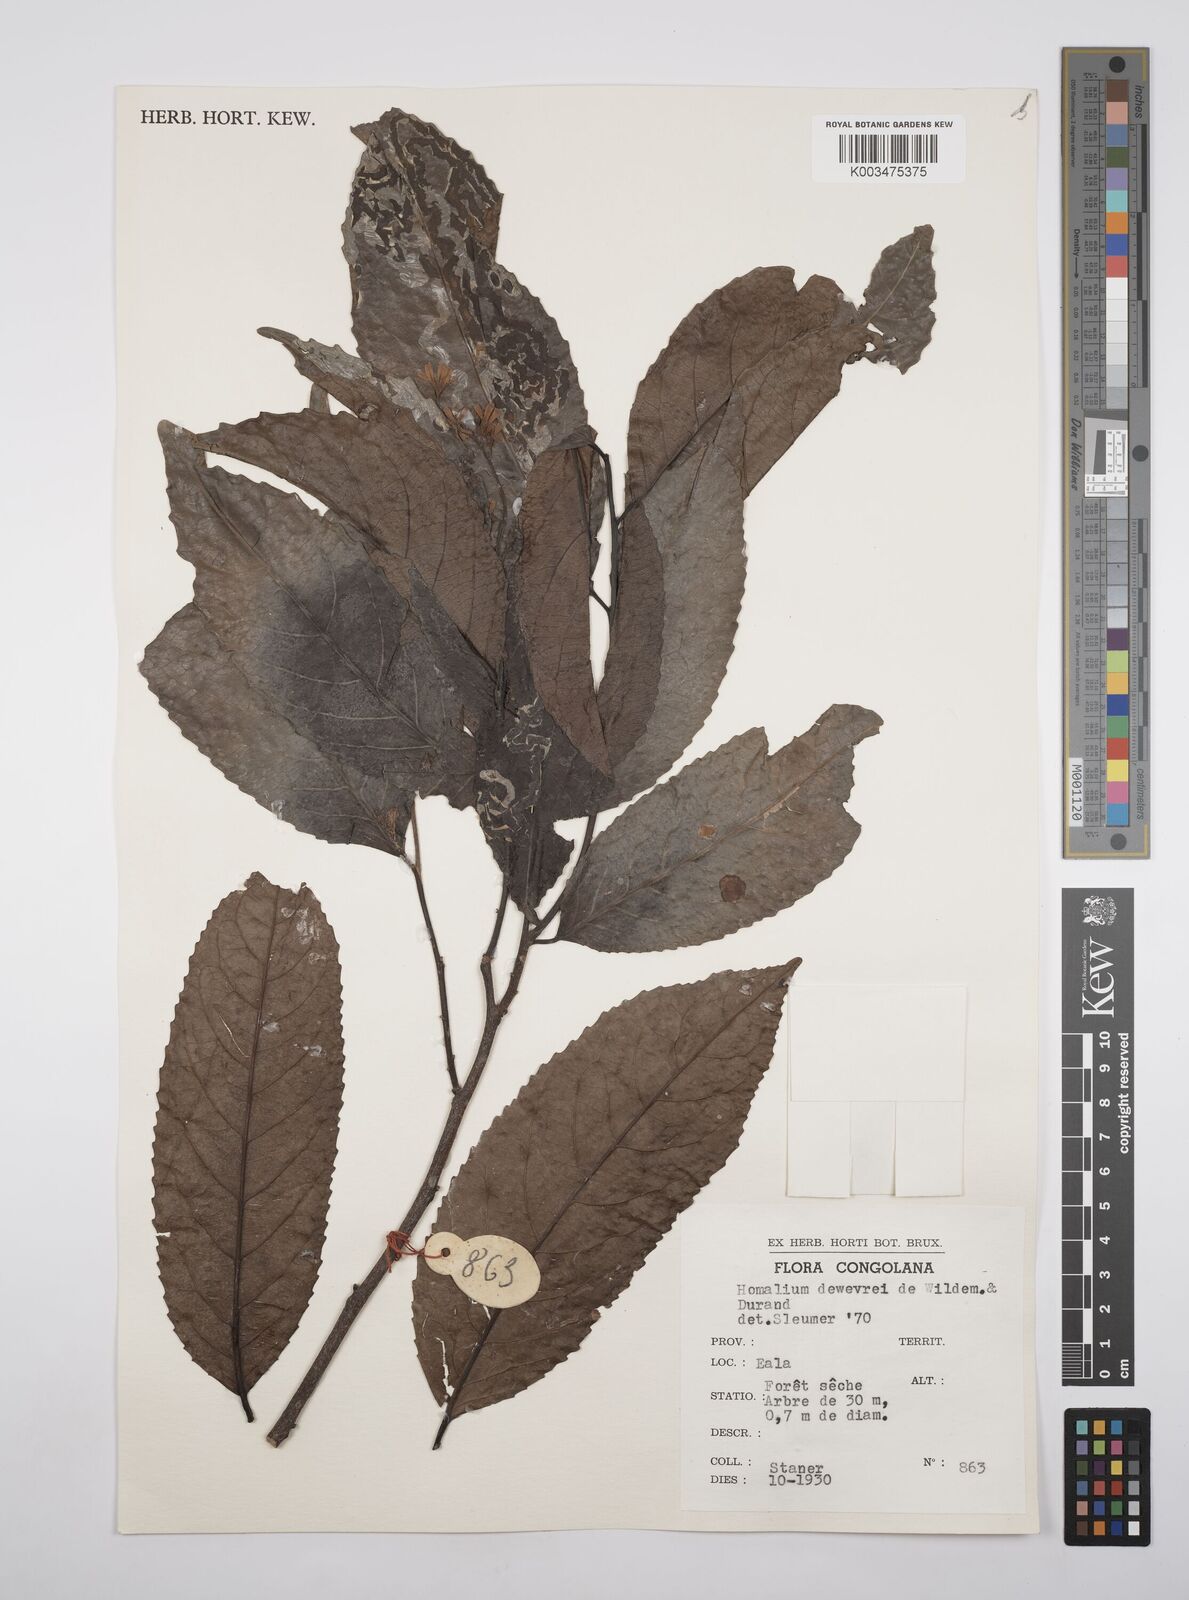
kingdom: Plantae
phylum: Tracheophyta
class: Magnoliopsida
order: Malpighiales
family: Salicaceae
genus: Homalium
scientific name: Homalium dewevrei
